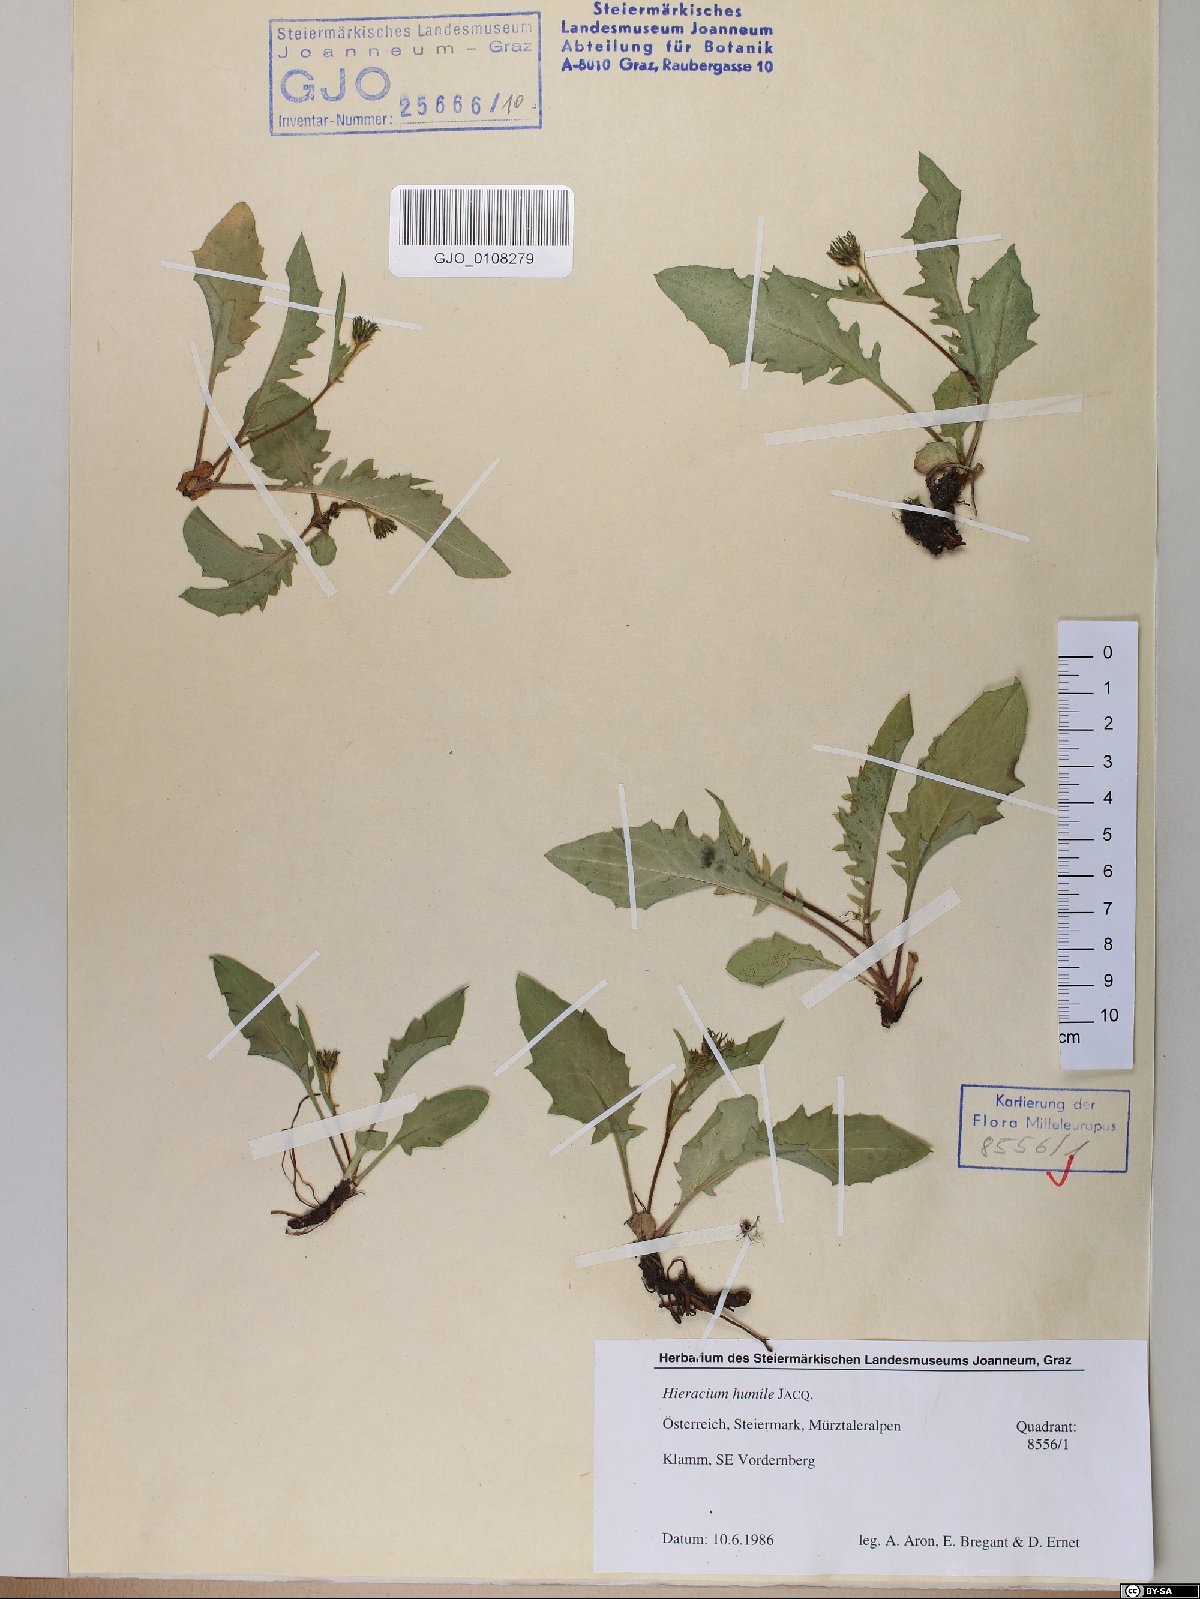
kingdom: Plantae
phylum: Tracheophyta
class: Magnoliopsida
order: Asterales
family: Asteraceae
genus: Hieracium
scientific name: Hieracium humile
